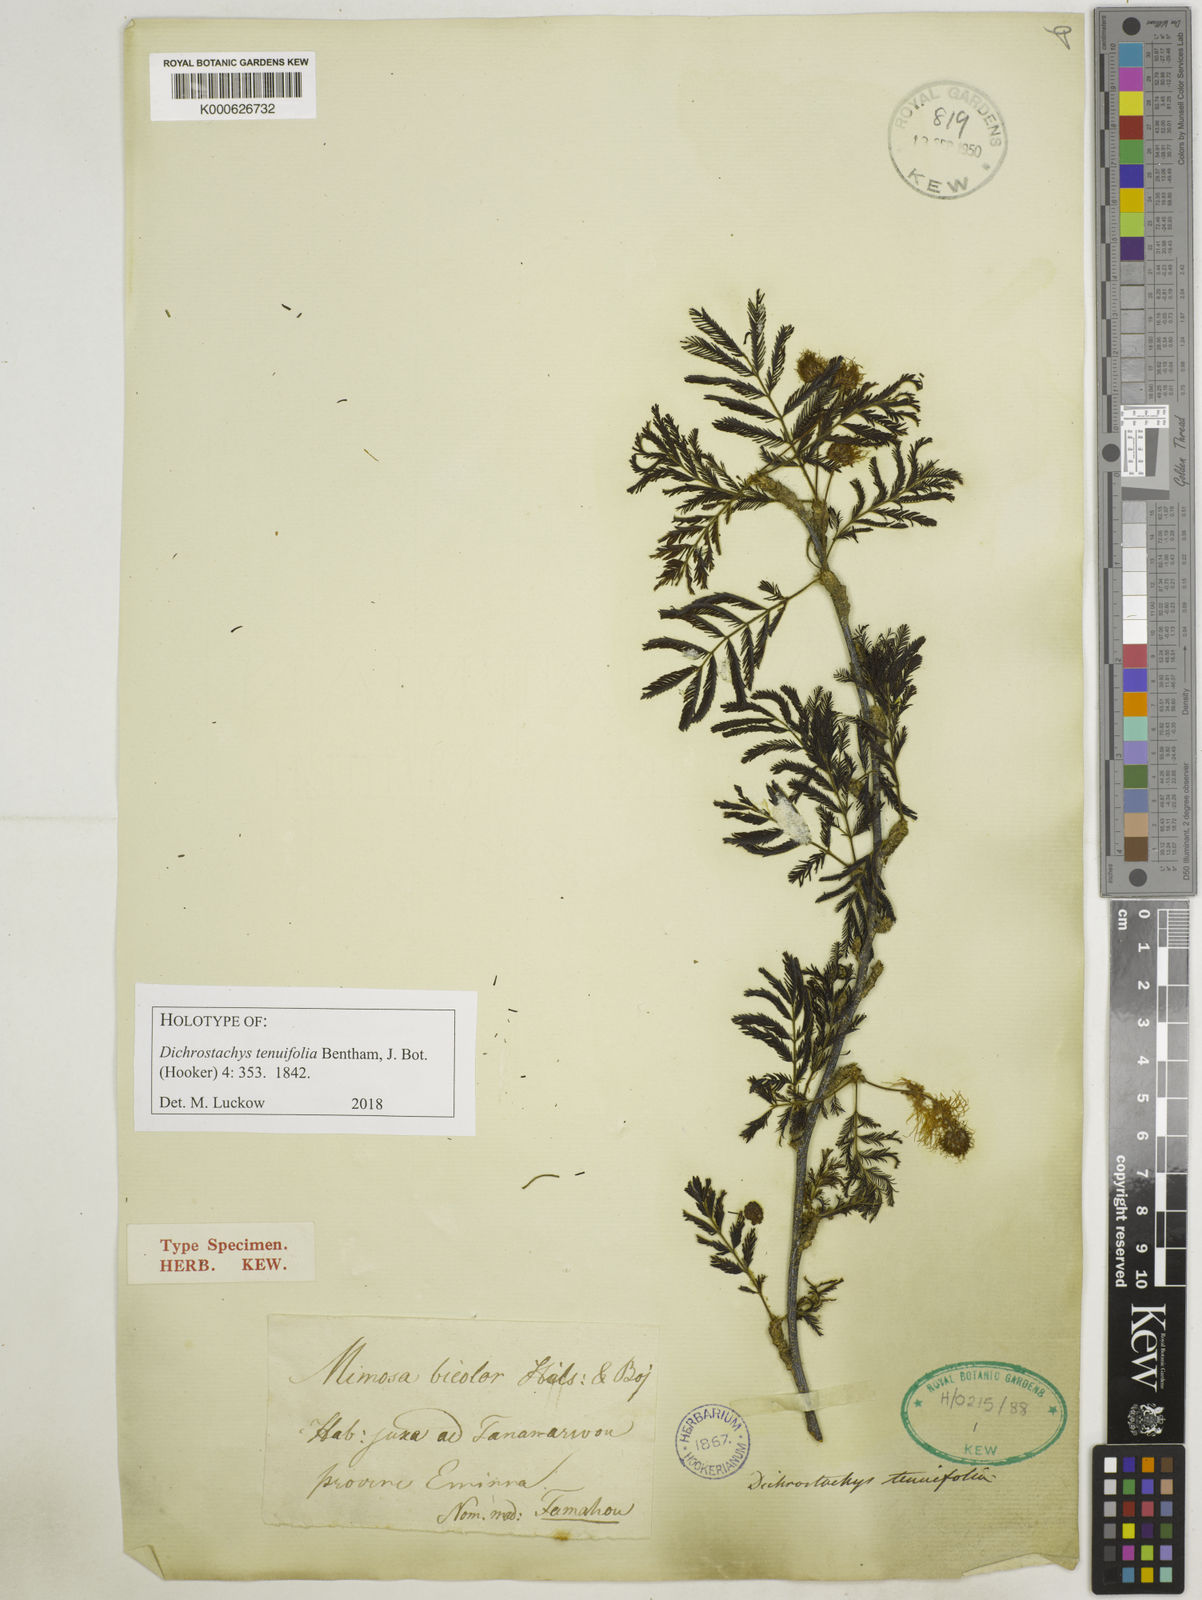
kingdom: Plantae
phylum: Tracheophyta
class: Magnoliopsida
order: Fabales
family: Fabaceae
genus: Dichrostachys
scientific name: Dichrostachys tenuifolia
